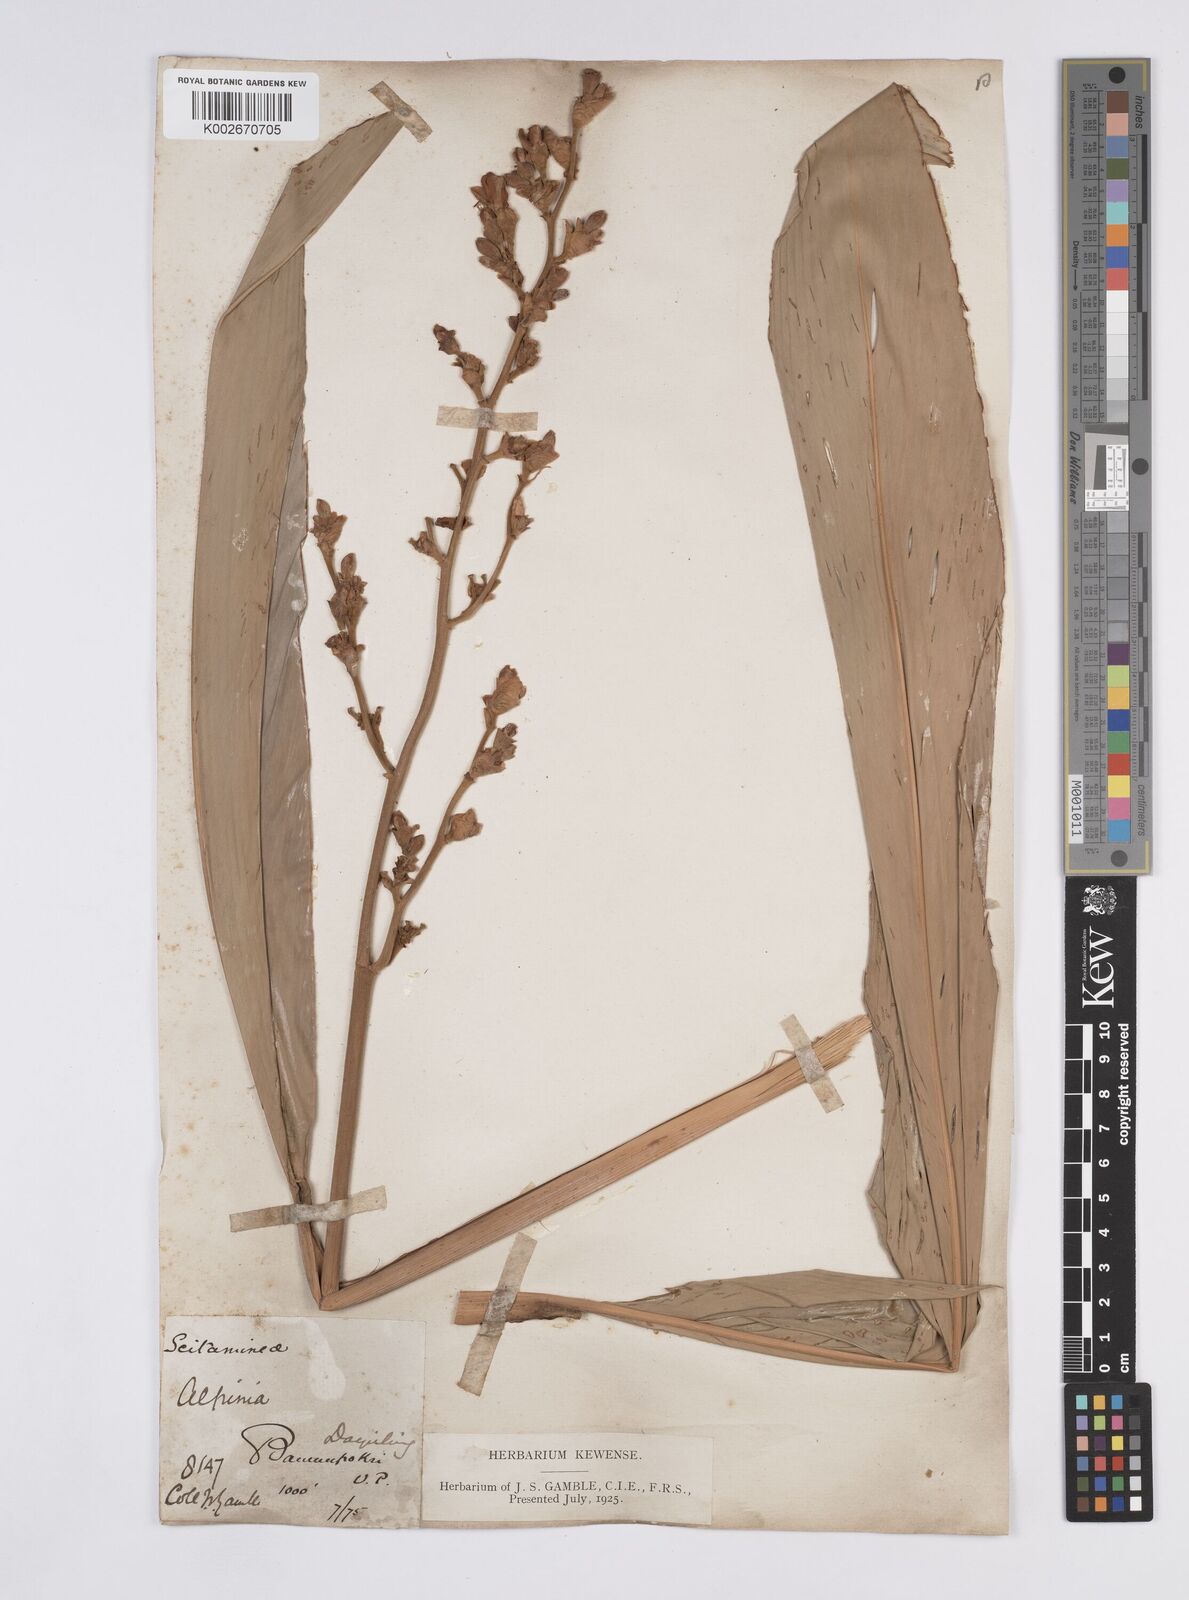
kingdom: Plantae
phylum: Tracheophyta
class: Liliopsida
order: Zingiberales
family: Zingiberaceae
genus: Alpinia
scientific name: Alpinia nigra
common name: Black fruited galanga
